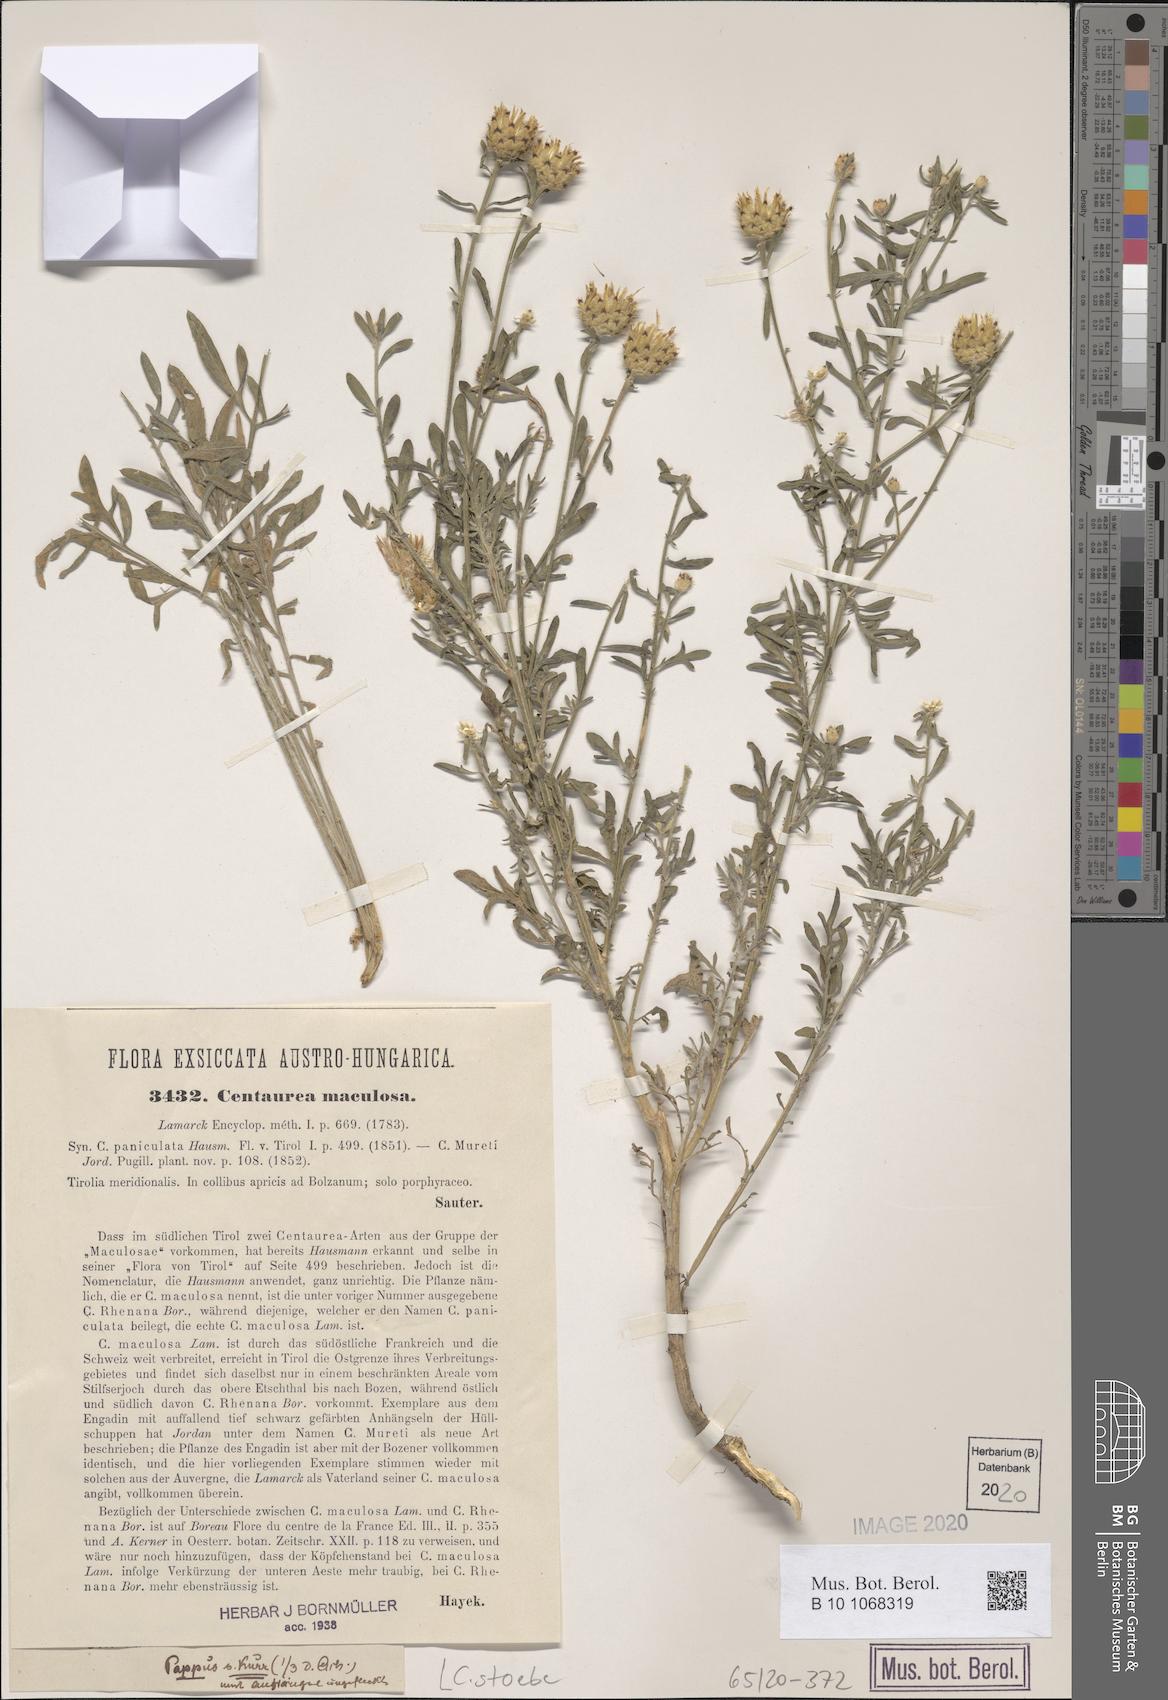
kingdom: Plantae
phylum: Tracheophyta
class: Magnoliopsida
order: Asterales
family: Asteraceae
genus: Centaurea
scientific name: Centaurea stoebe
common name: Spotted knapweed
